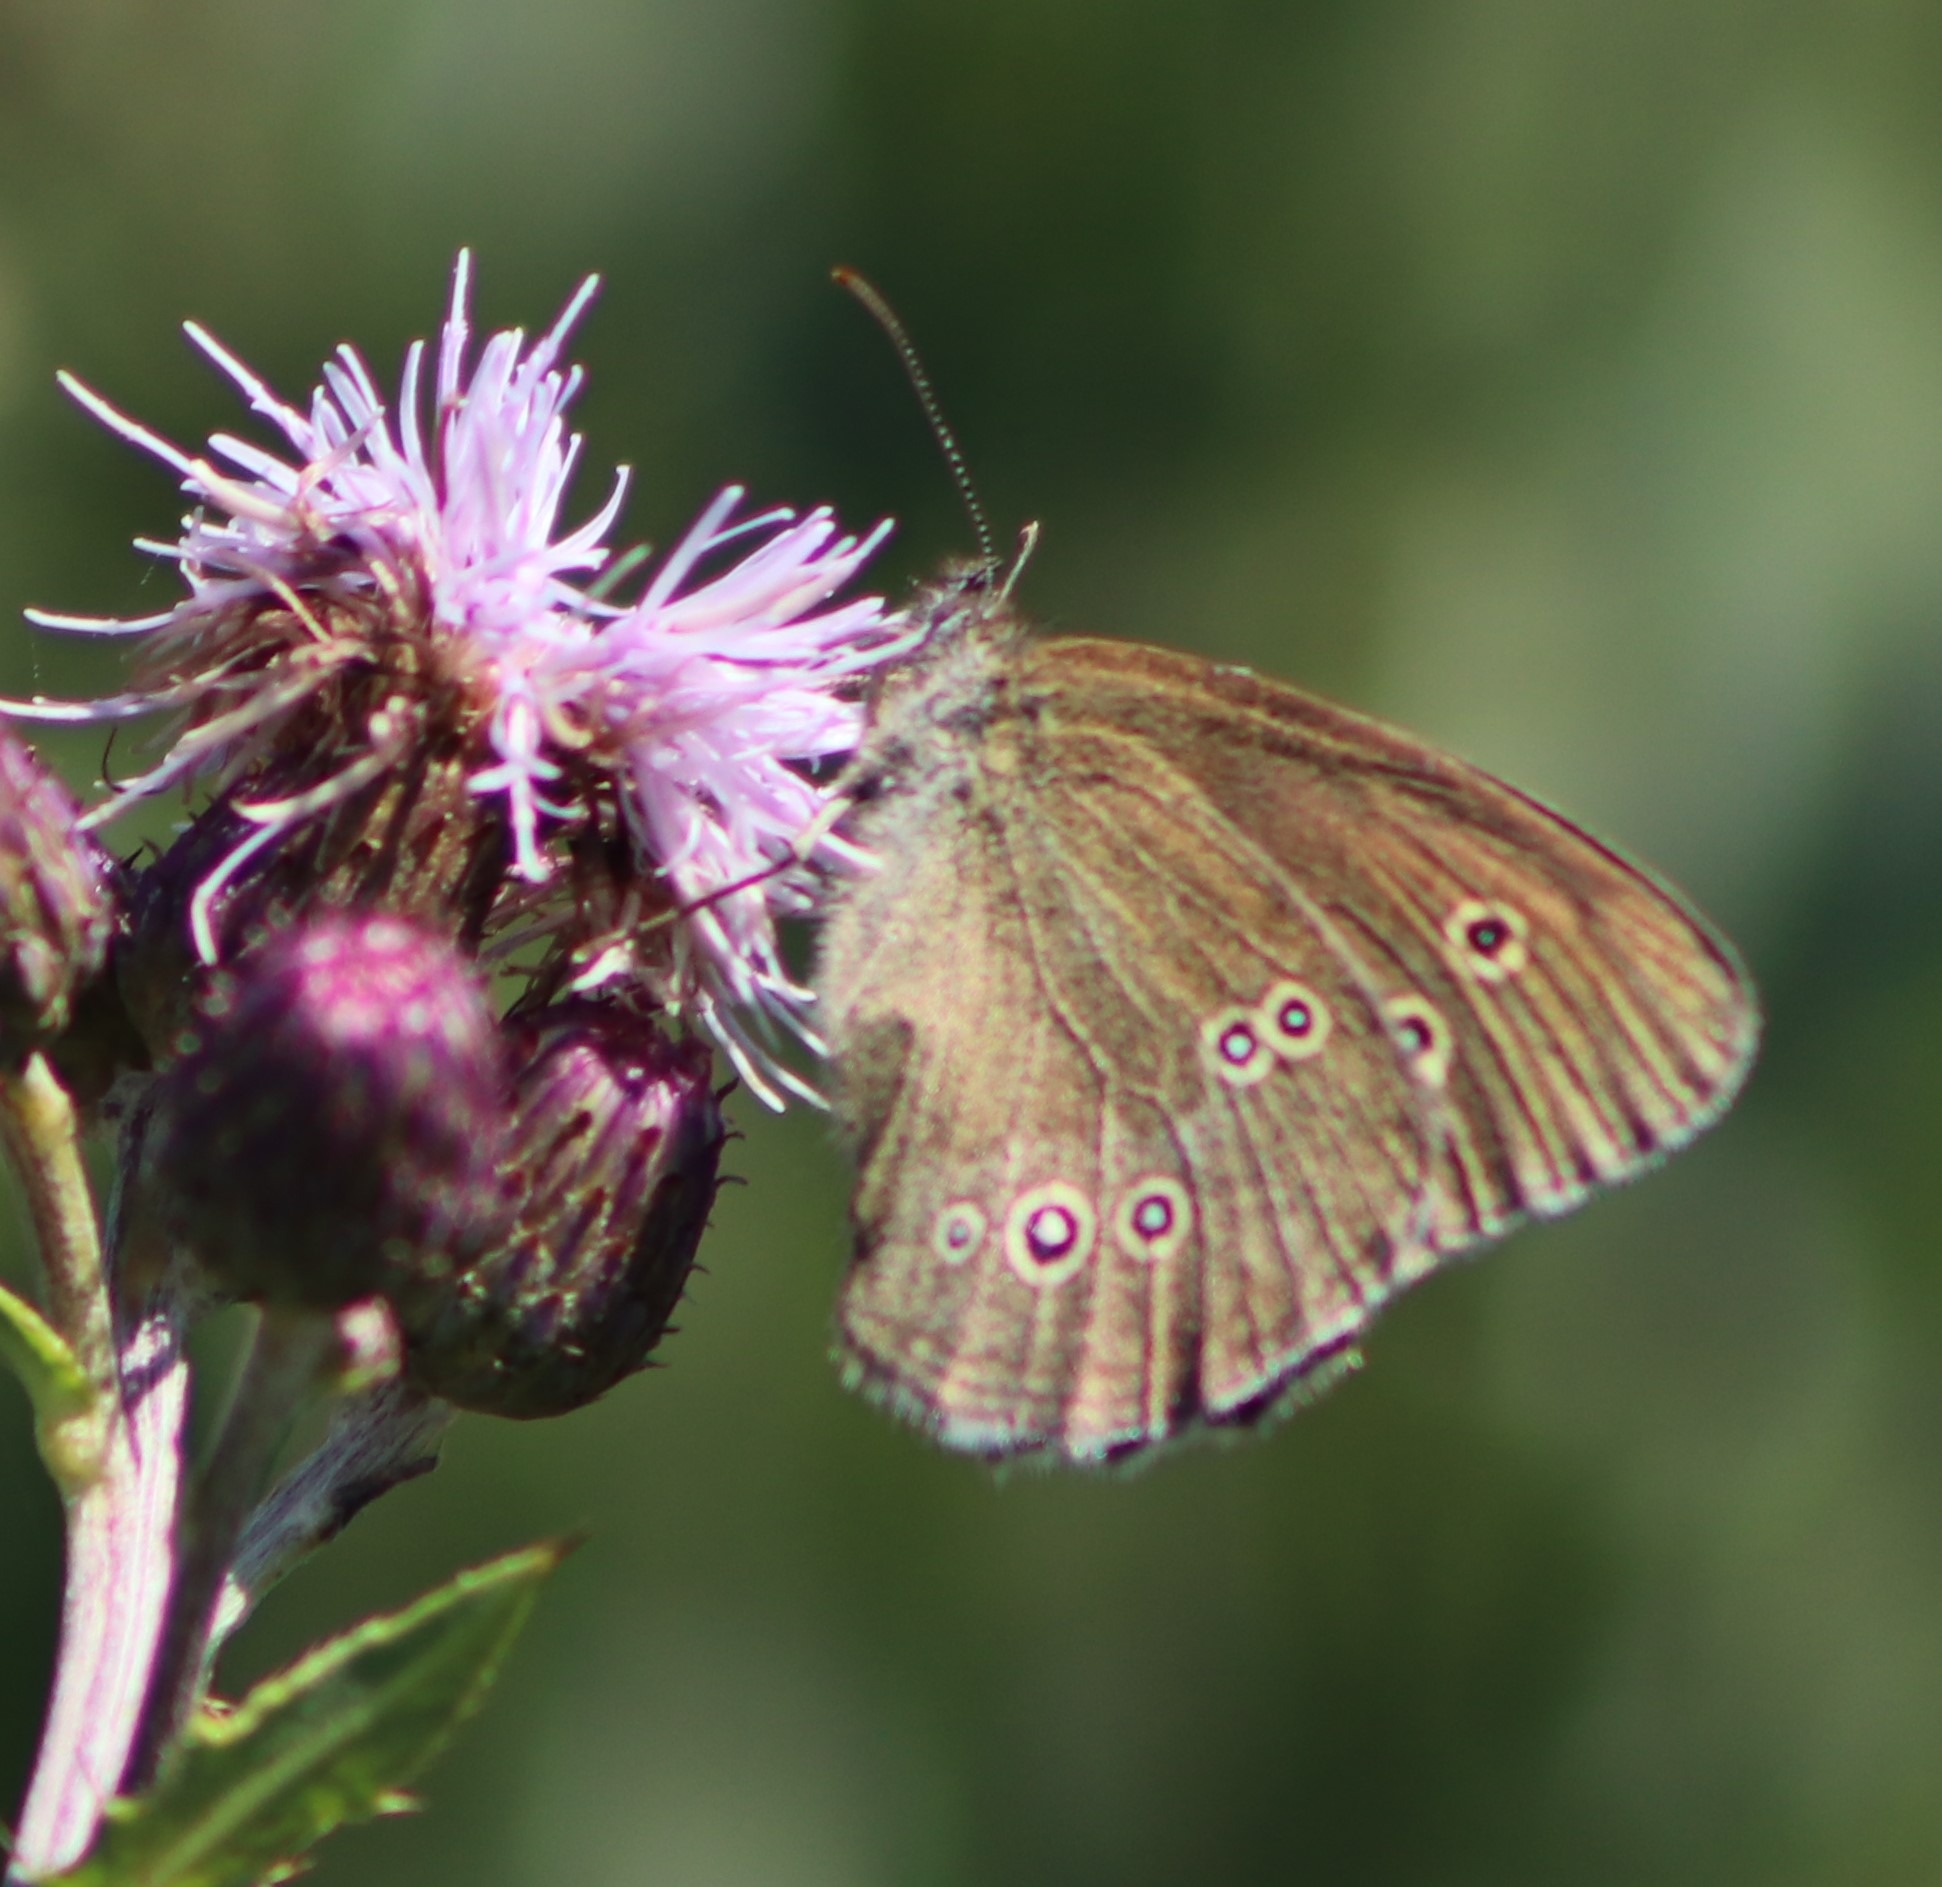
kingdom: Animalia
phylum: Arthropoda
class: Insecta
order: Lepidoptera
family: Nymphalidae
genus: Aphantopus
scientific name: Aphantopus hyperantus
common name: Engrandøje
